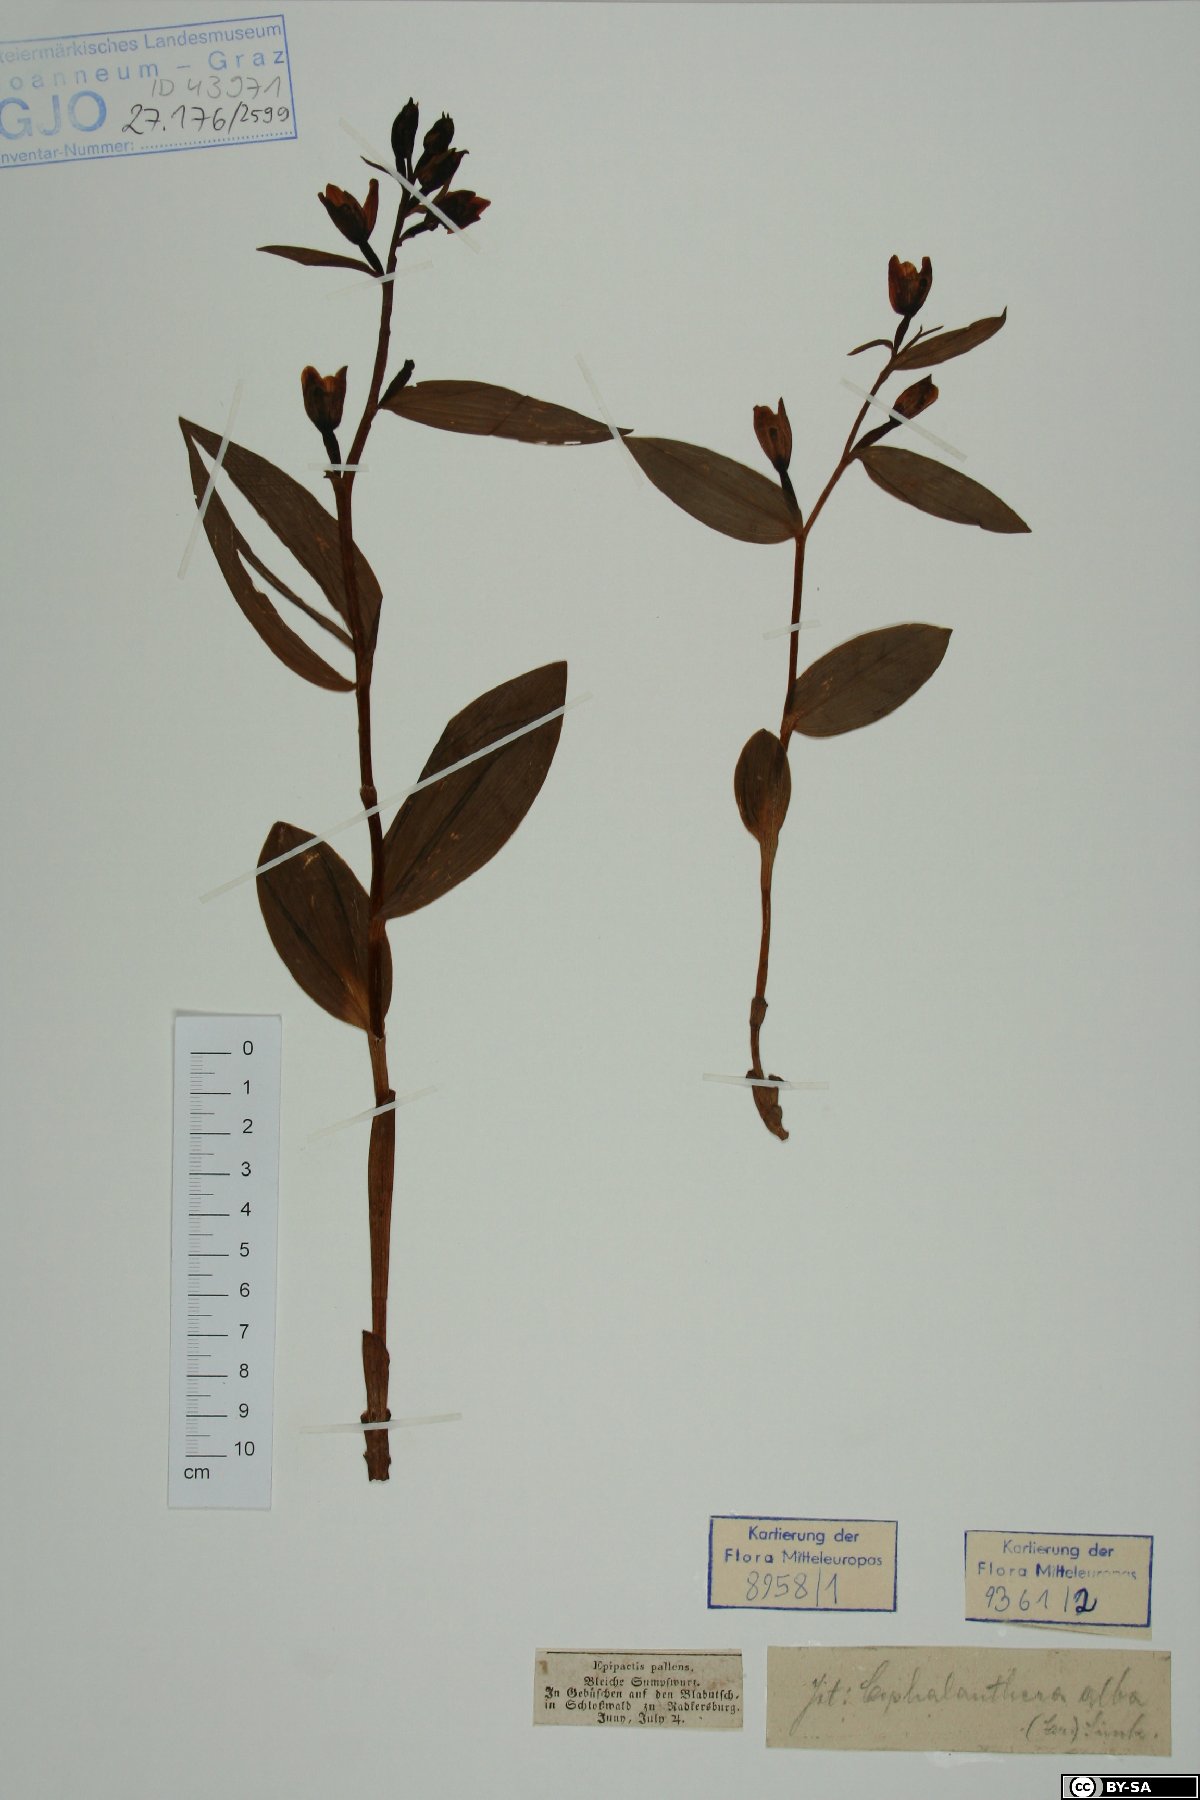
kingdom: Plantae
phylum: Tracheophyta
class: Liliopsida
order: Asparagales
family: Orchidaceae
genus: Cephalanthera
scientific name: Cephalanthera longifolia
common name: Narrow-leaved helleborine
